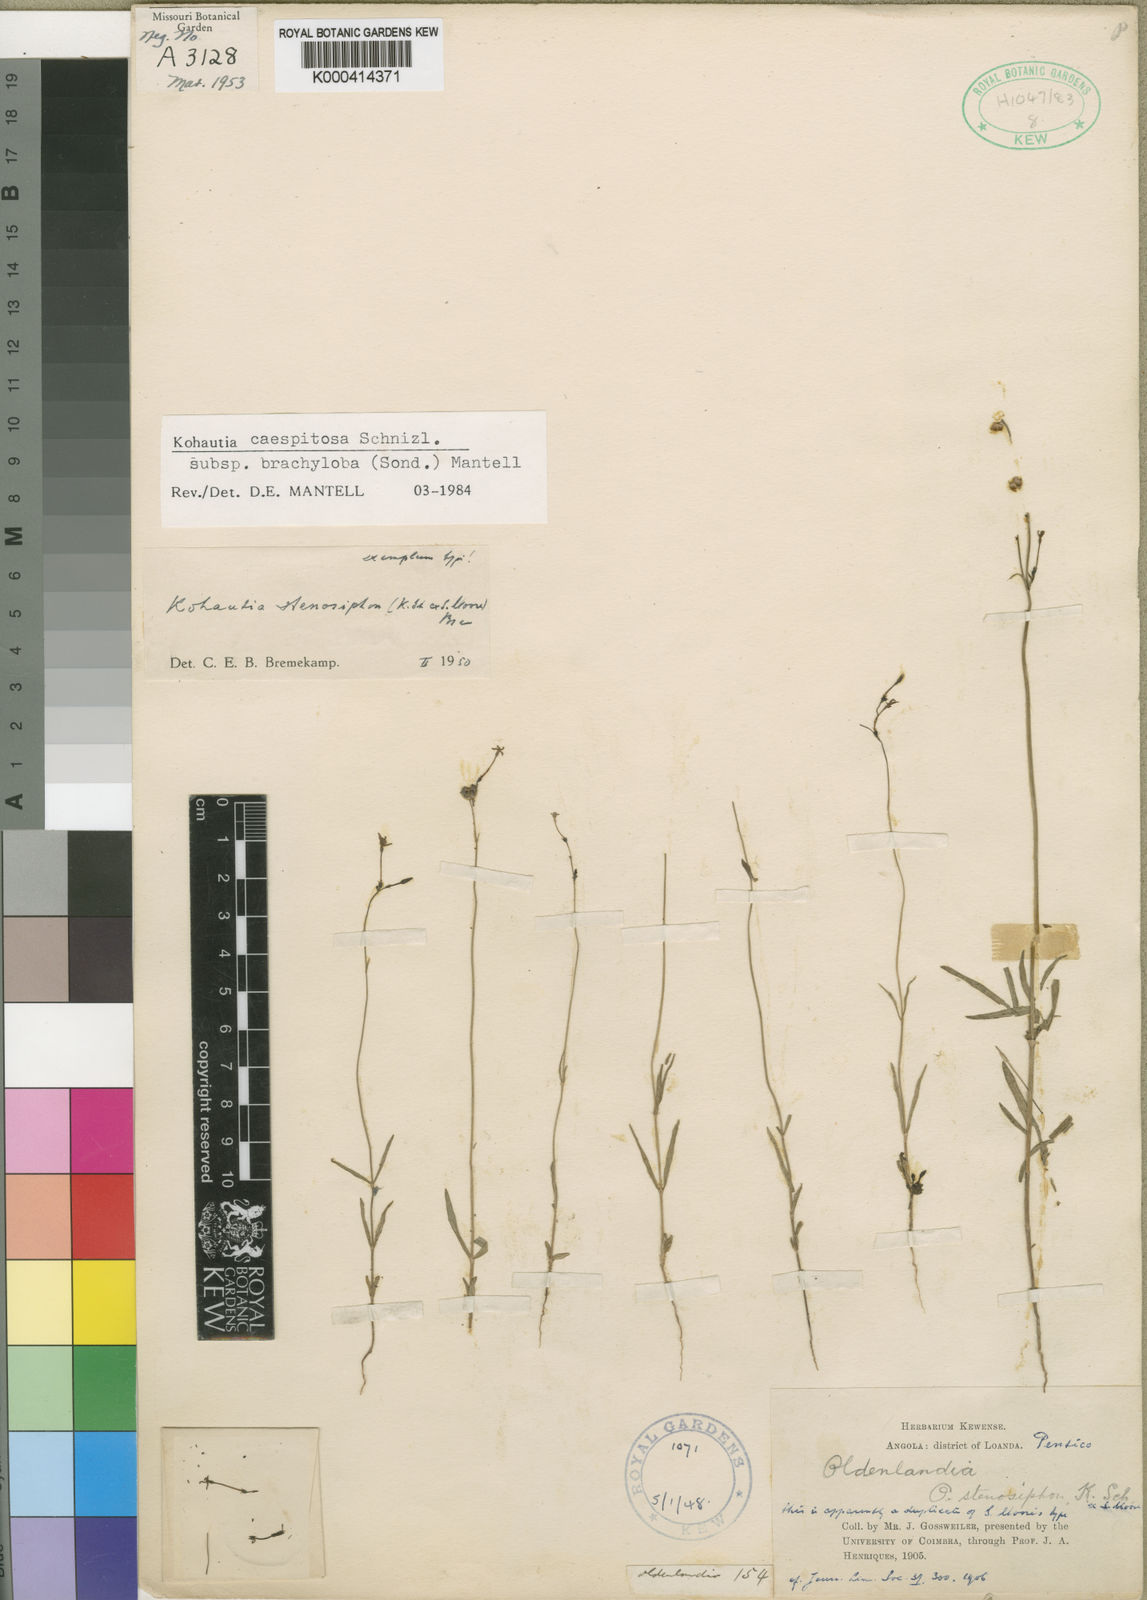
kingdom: Plantae
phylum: Tracheophyta
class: Magnoliopsida
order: Gentianales
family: Rubiaceae
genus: Kohautia
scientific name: Kohautia caespitosa
